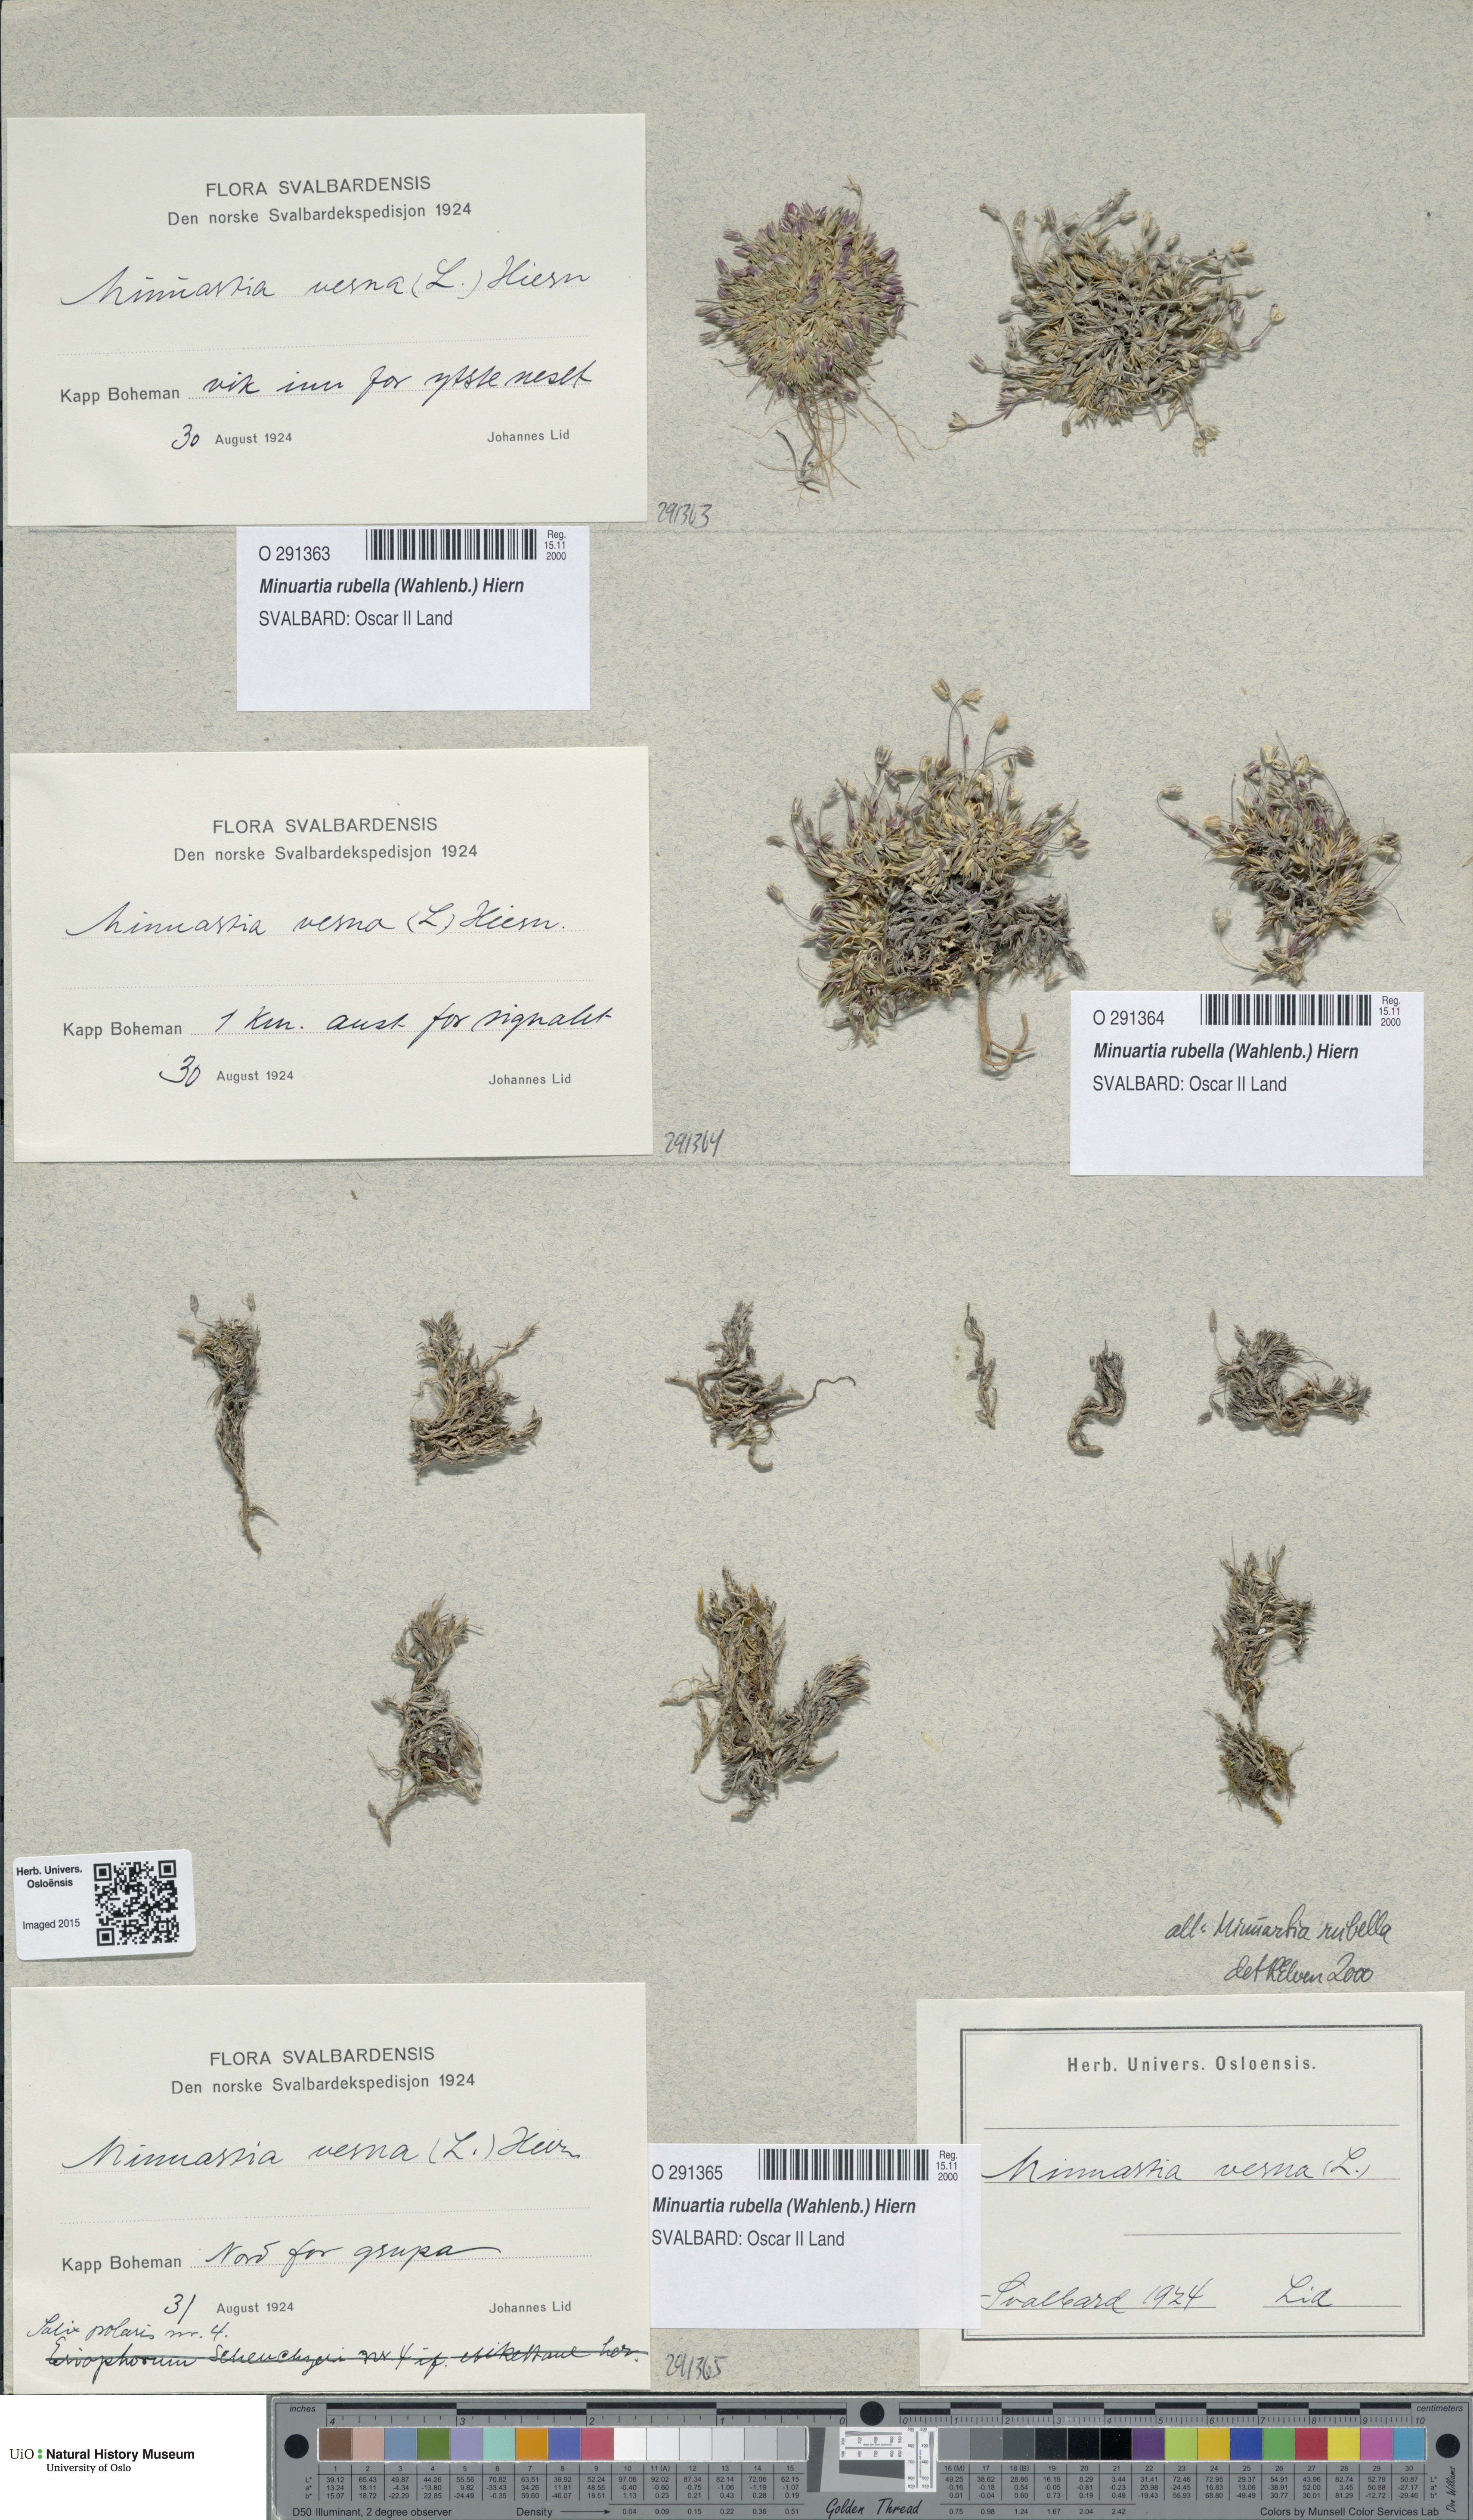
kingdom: Plantae
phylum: Tracheophyta
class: Magnoliopsida
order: Caryophyllales
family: Caryophyllaceae
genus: Sabulina
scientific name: Sabulina rubella
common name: Beautiful sandwort
